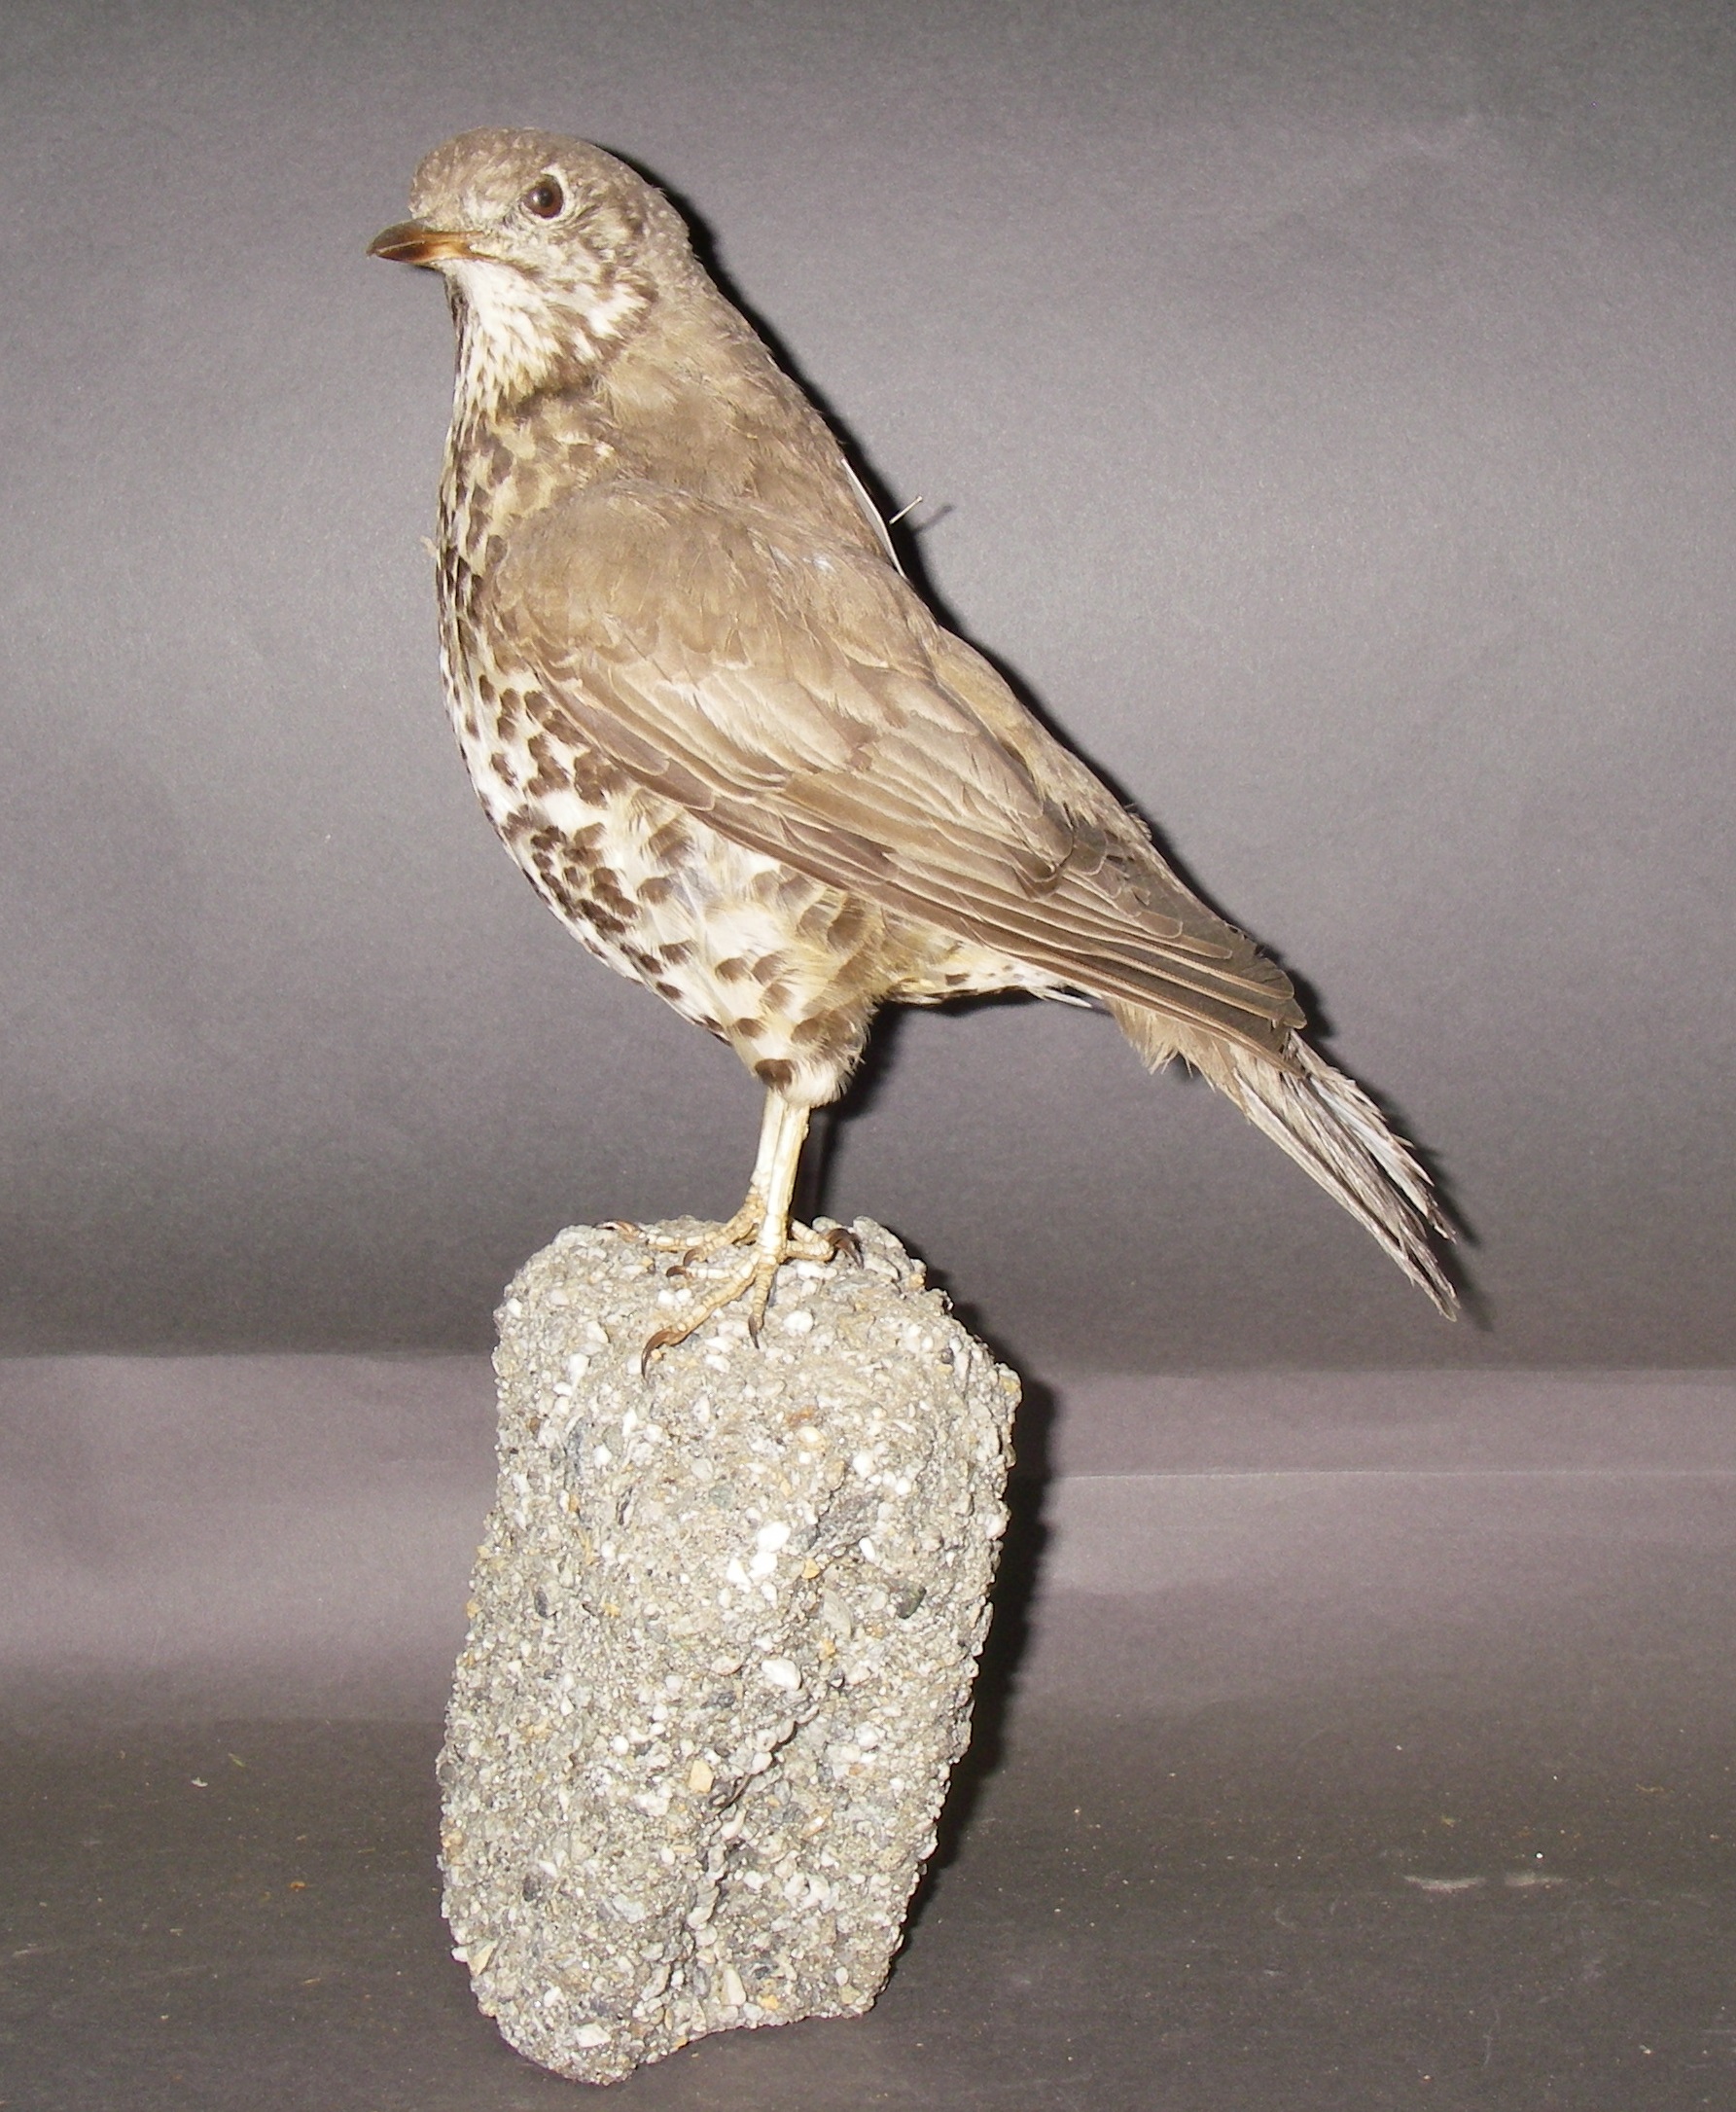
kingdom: Animalia
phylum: Chordata
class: Aves
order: Passeriformes
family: Turdidae
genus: Turdus
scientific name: Turdus viscivorus
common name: Mistle thrush
